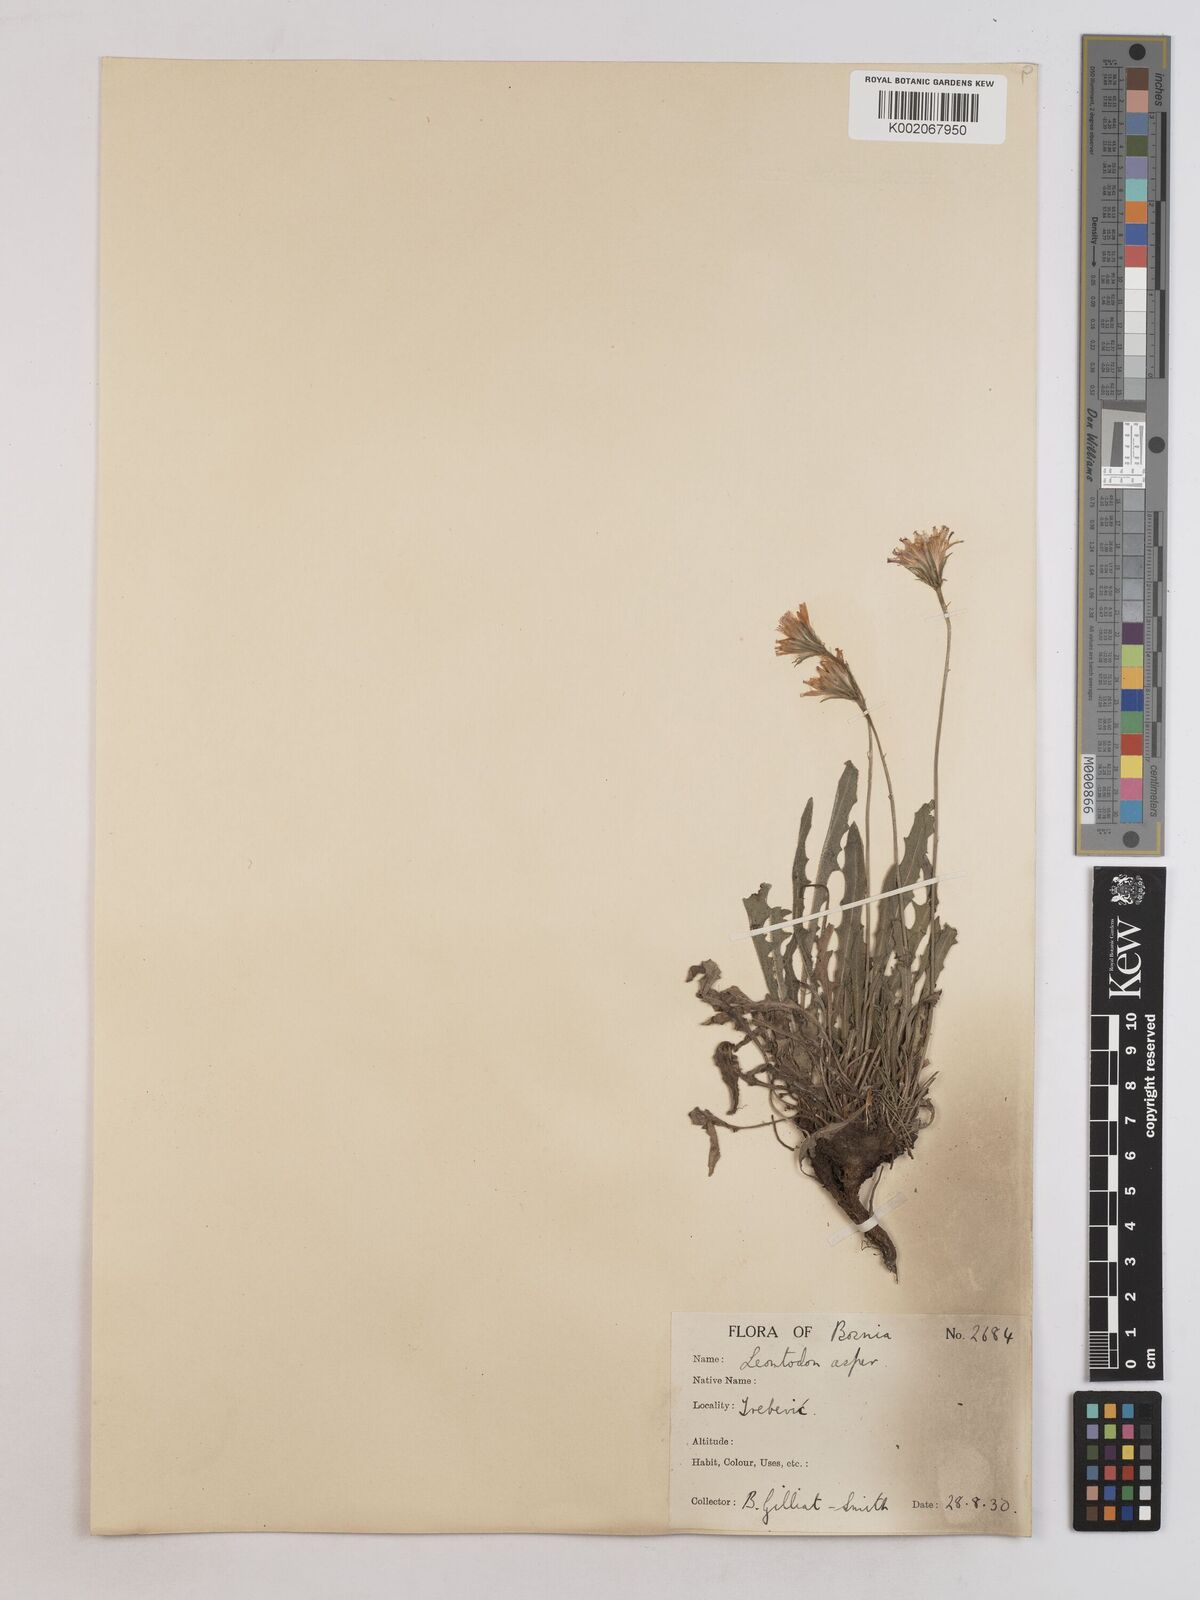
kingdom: Plantae
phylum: Tracheophyta
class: Magnoliopsida
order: Asterales
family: Asteraceae
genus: Leontodon
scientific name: Leontodon crispus
